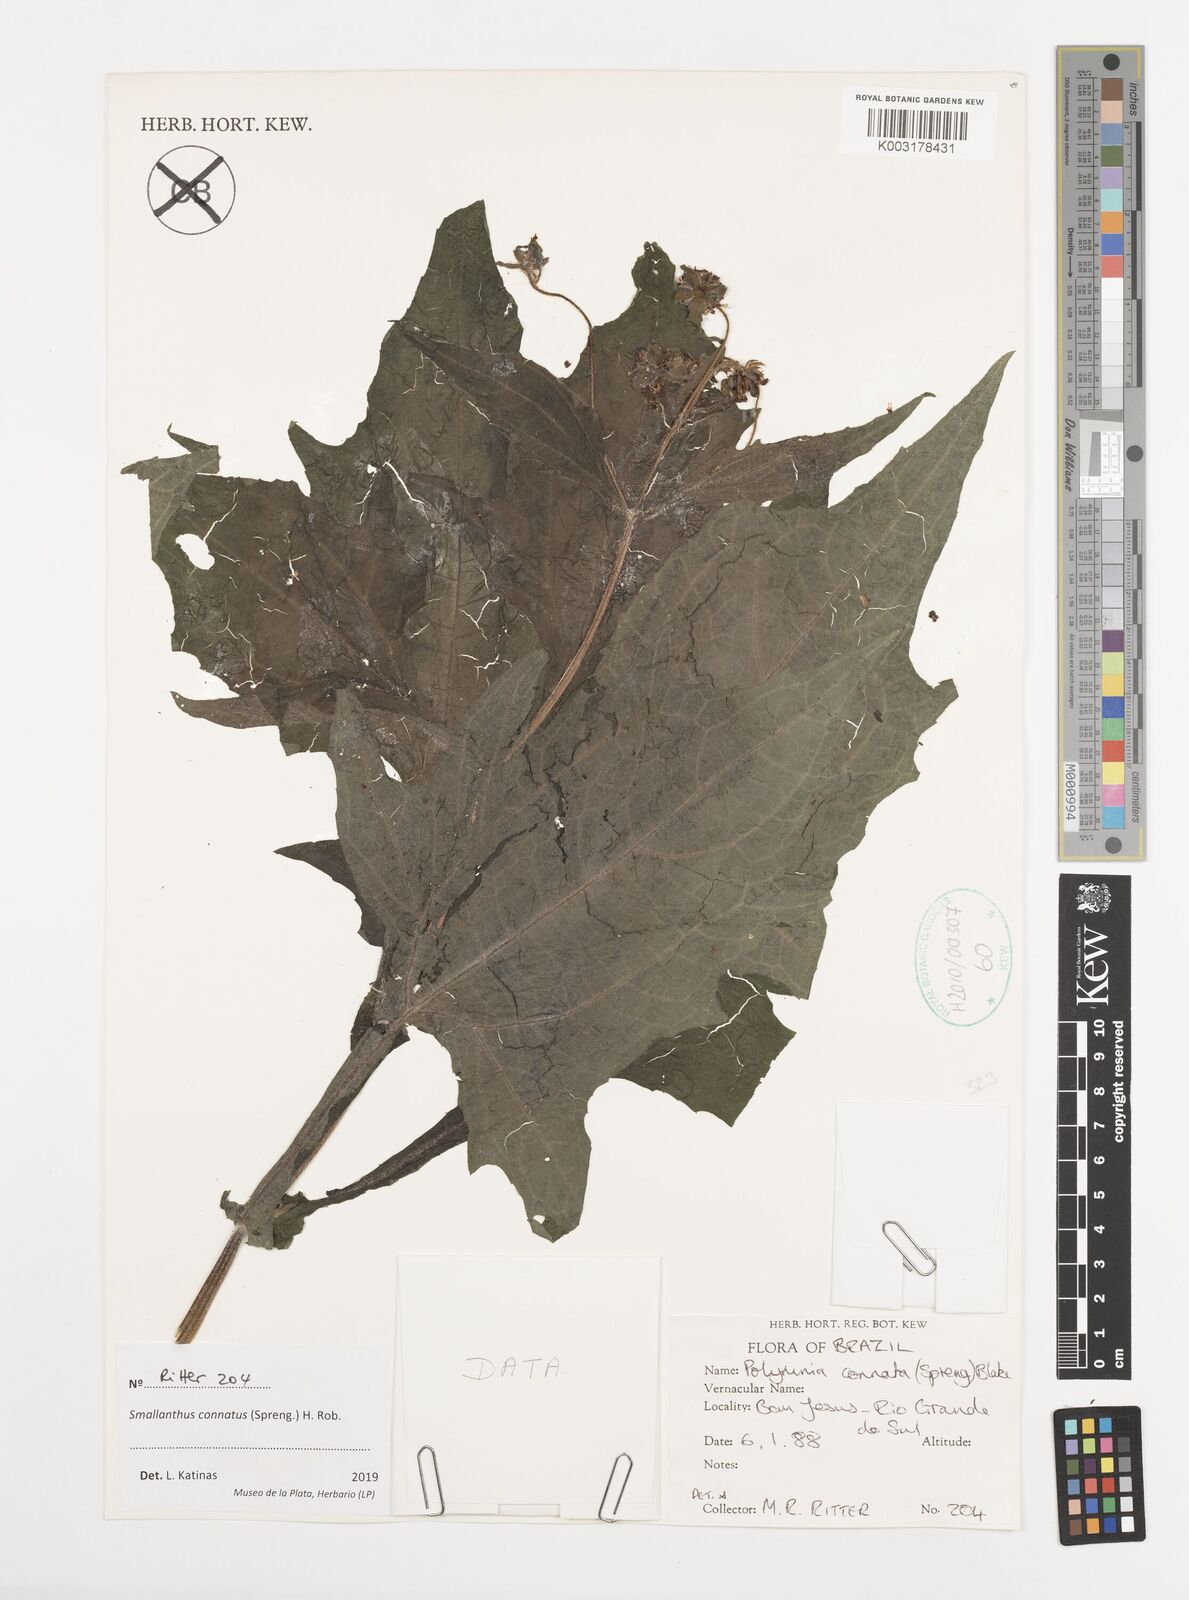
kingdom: Plantae
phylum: Tracheophyta
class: Magnoliopsida
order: Asterales
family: Asteraceae
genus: Smallanthus
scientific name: Smallanthus connatus
